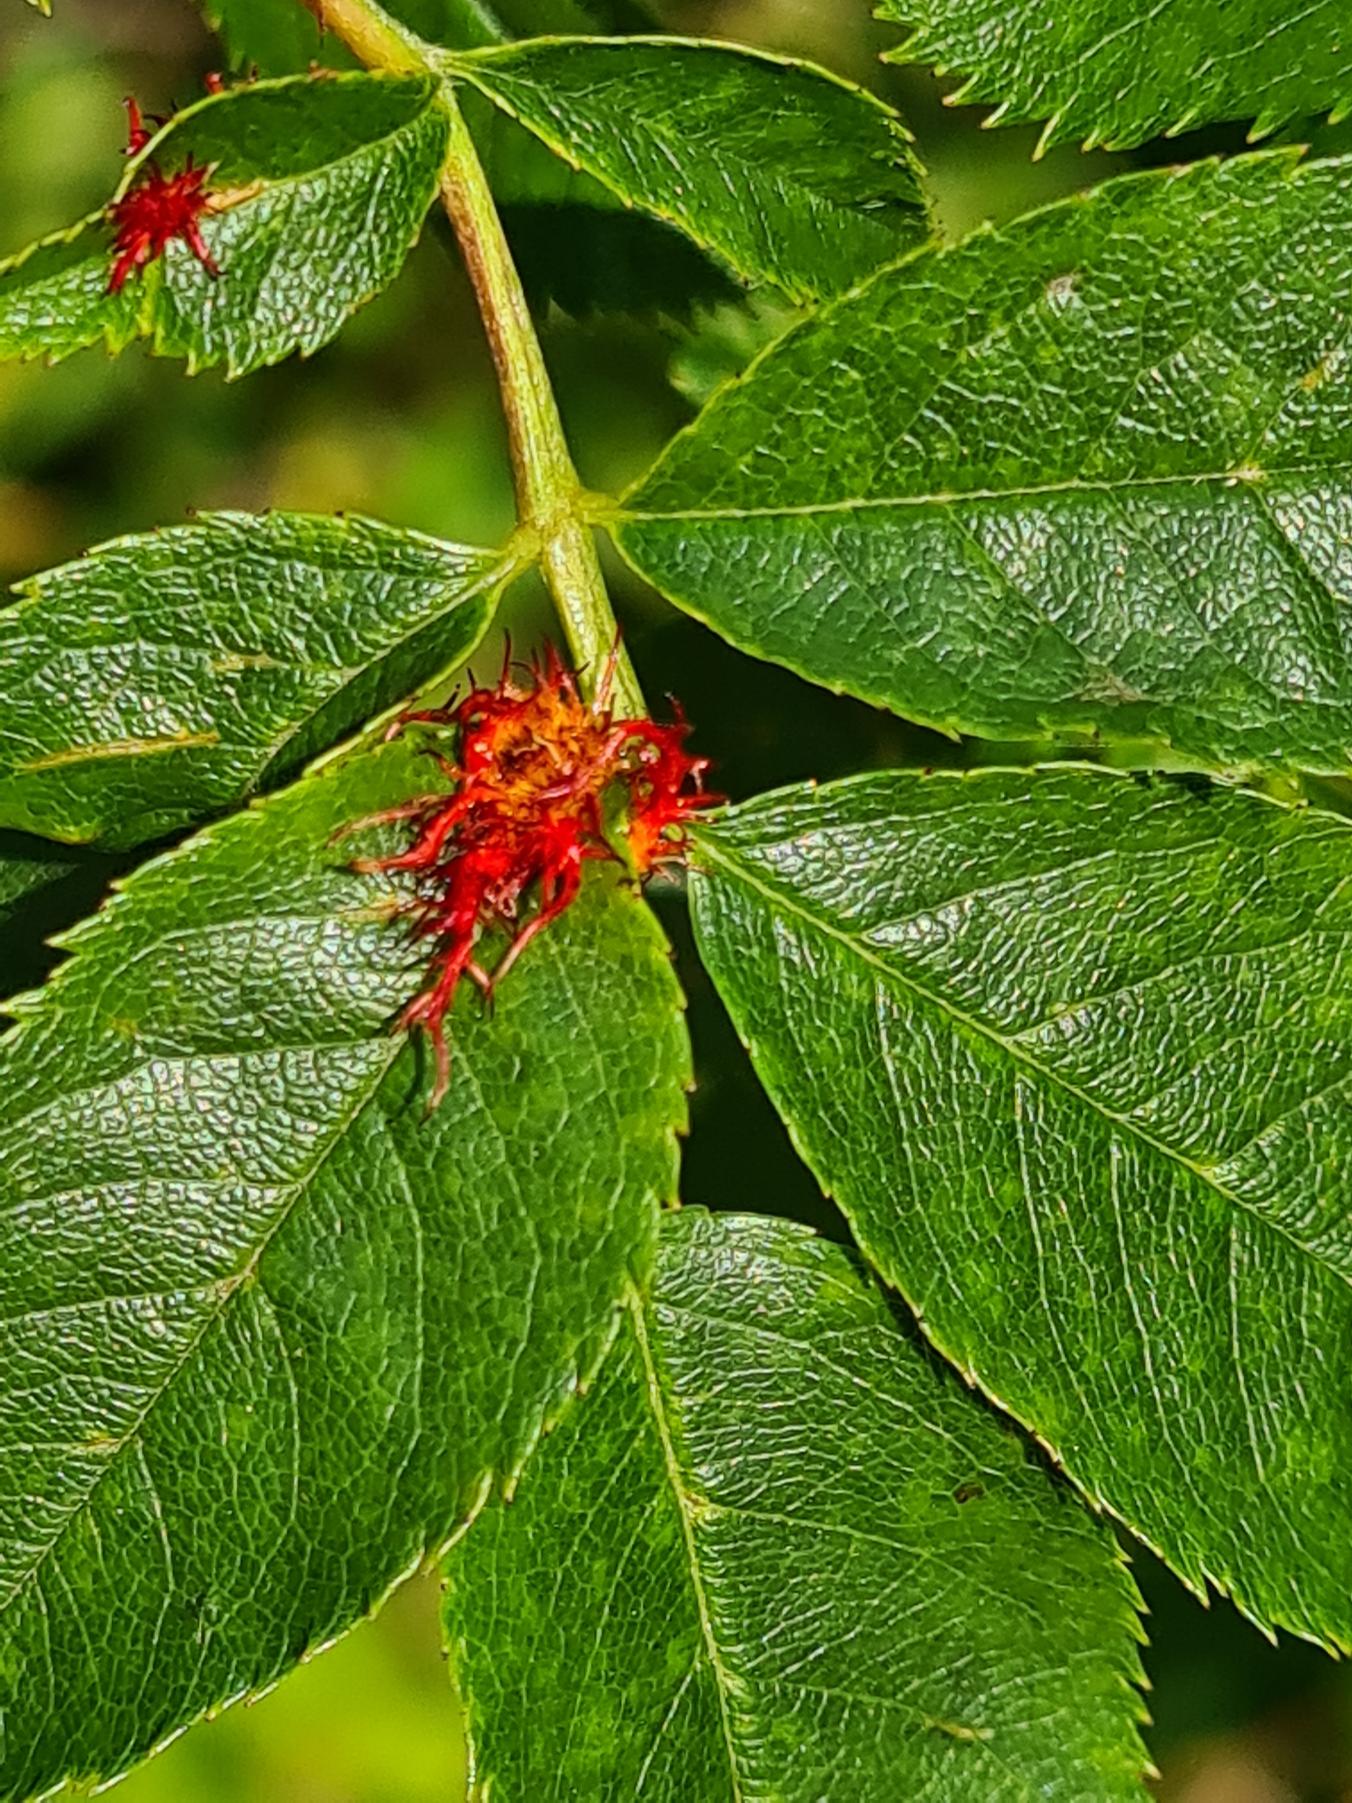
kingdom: Animalia
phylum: Arthropoda
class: Insecta
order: Hymenoptera
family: Cynipidae
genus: Diplolepis
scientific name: Diplolepis rosae
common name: Bedeguargalhveps
